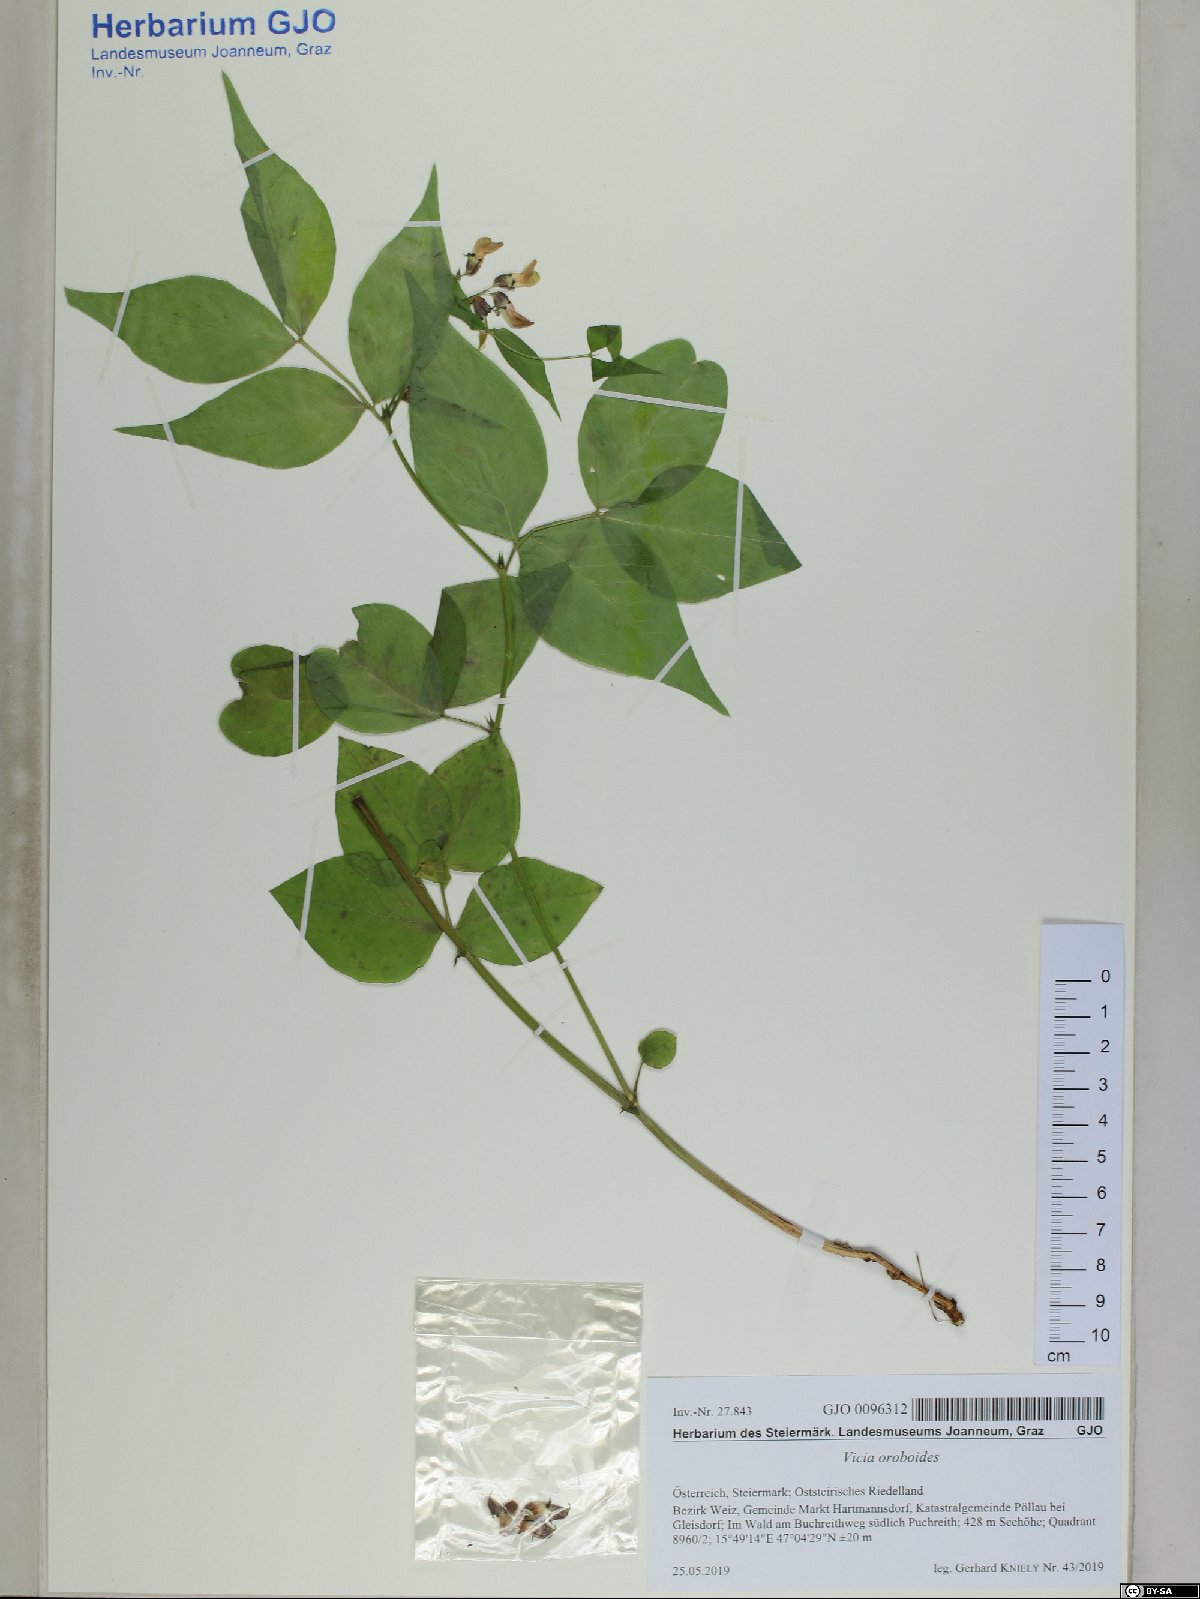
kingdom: Plantae
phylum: Tracheophyta
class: Magnoliopsida
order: Fabales
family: Fabaceae
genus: Vicia
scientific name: Vicia oroboides
